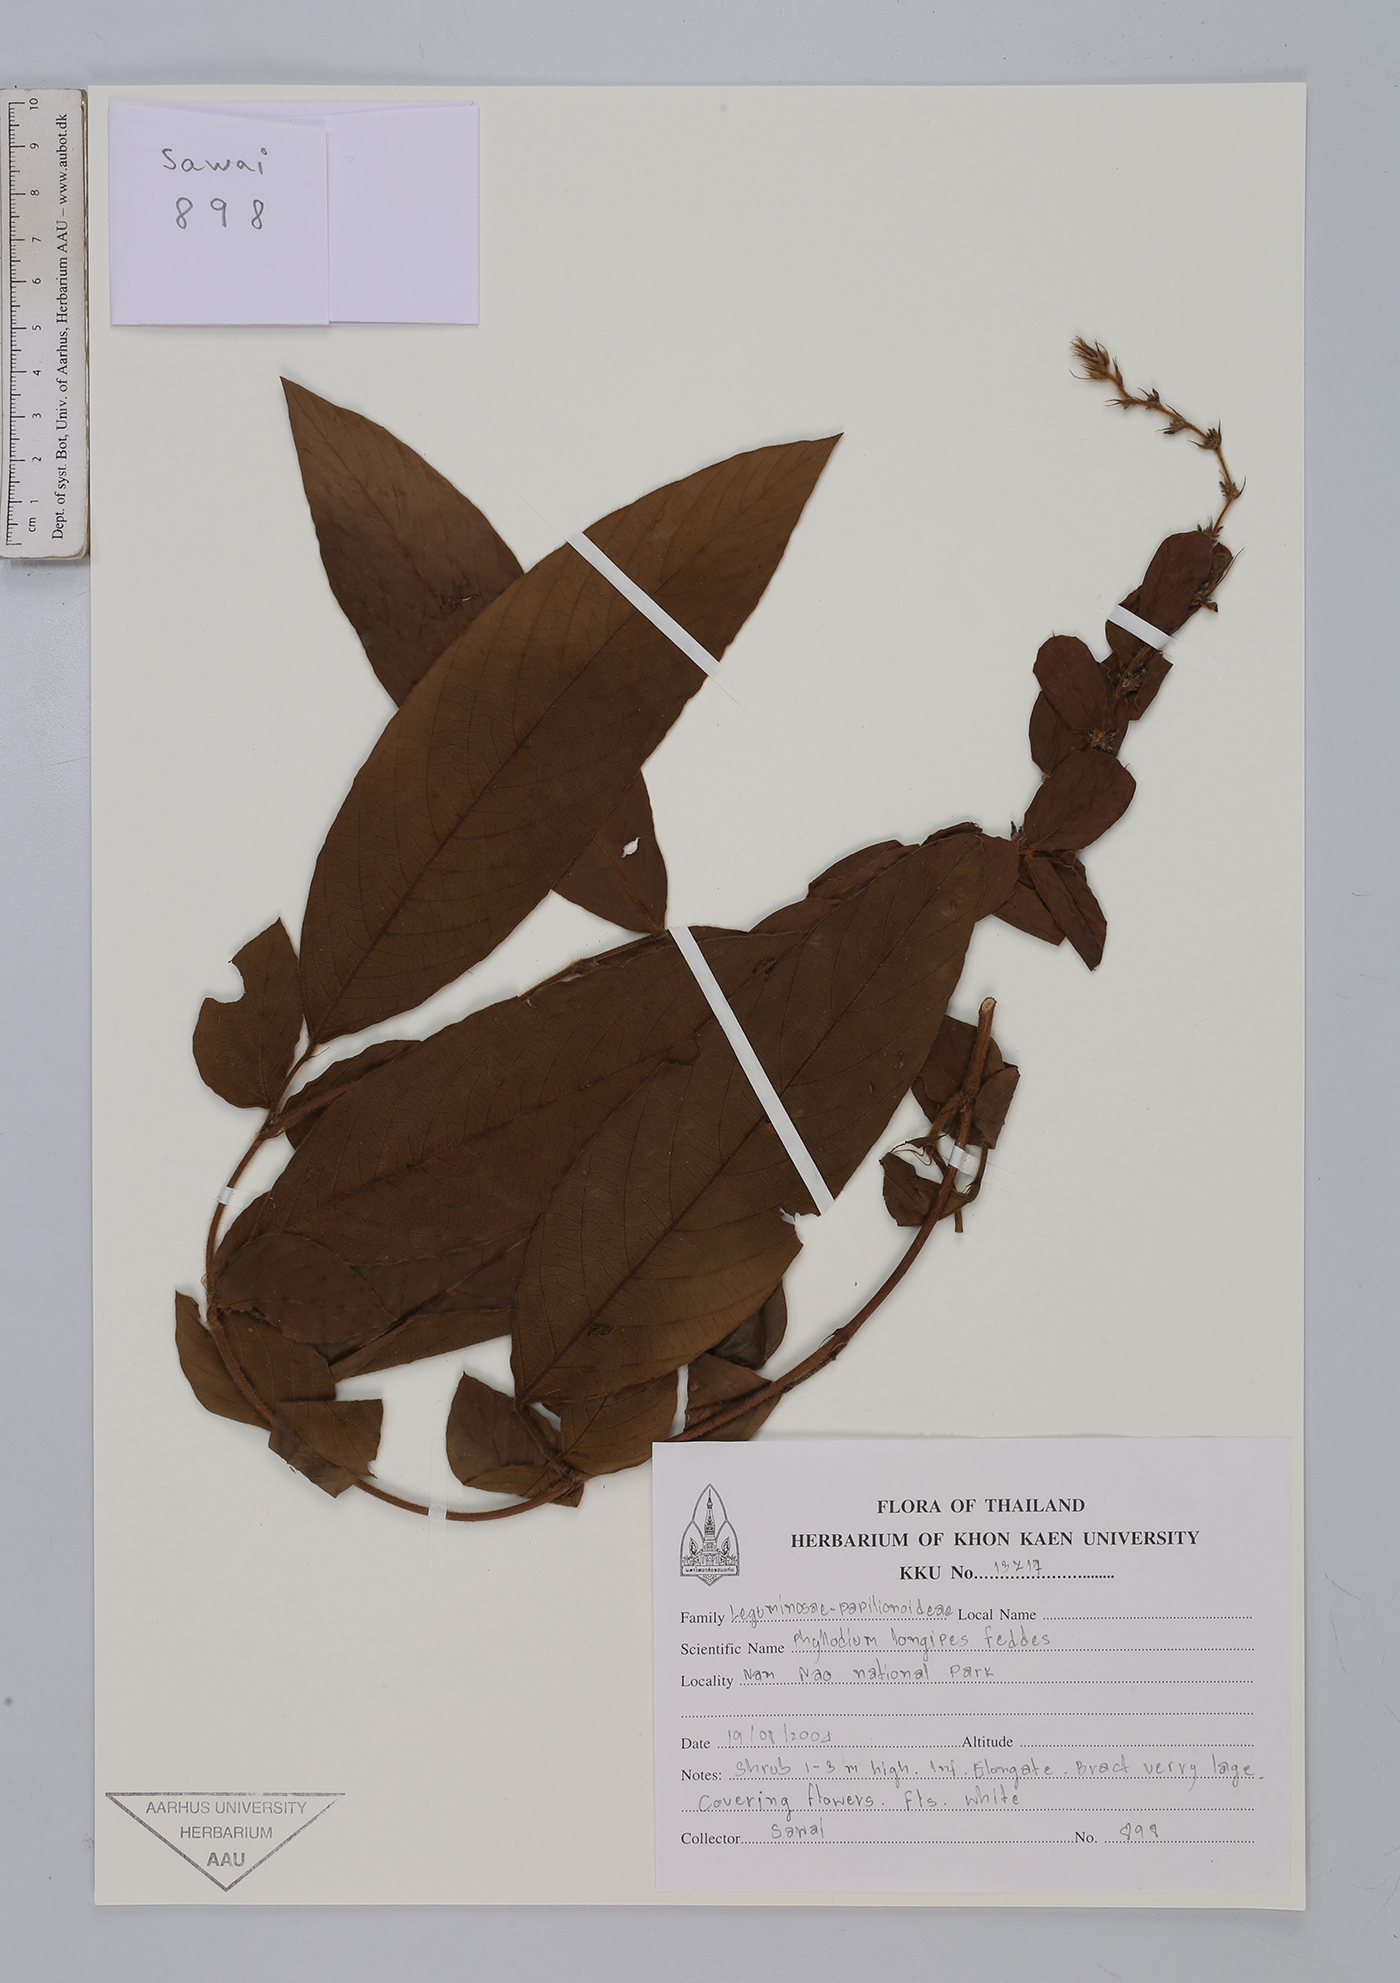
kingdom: Plantae
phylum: Tracheophyta
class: Magnoliopsida
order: Fabales
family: Fabaceae
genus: Phyllodium
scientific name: Phyllodium longipes
